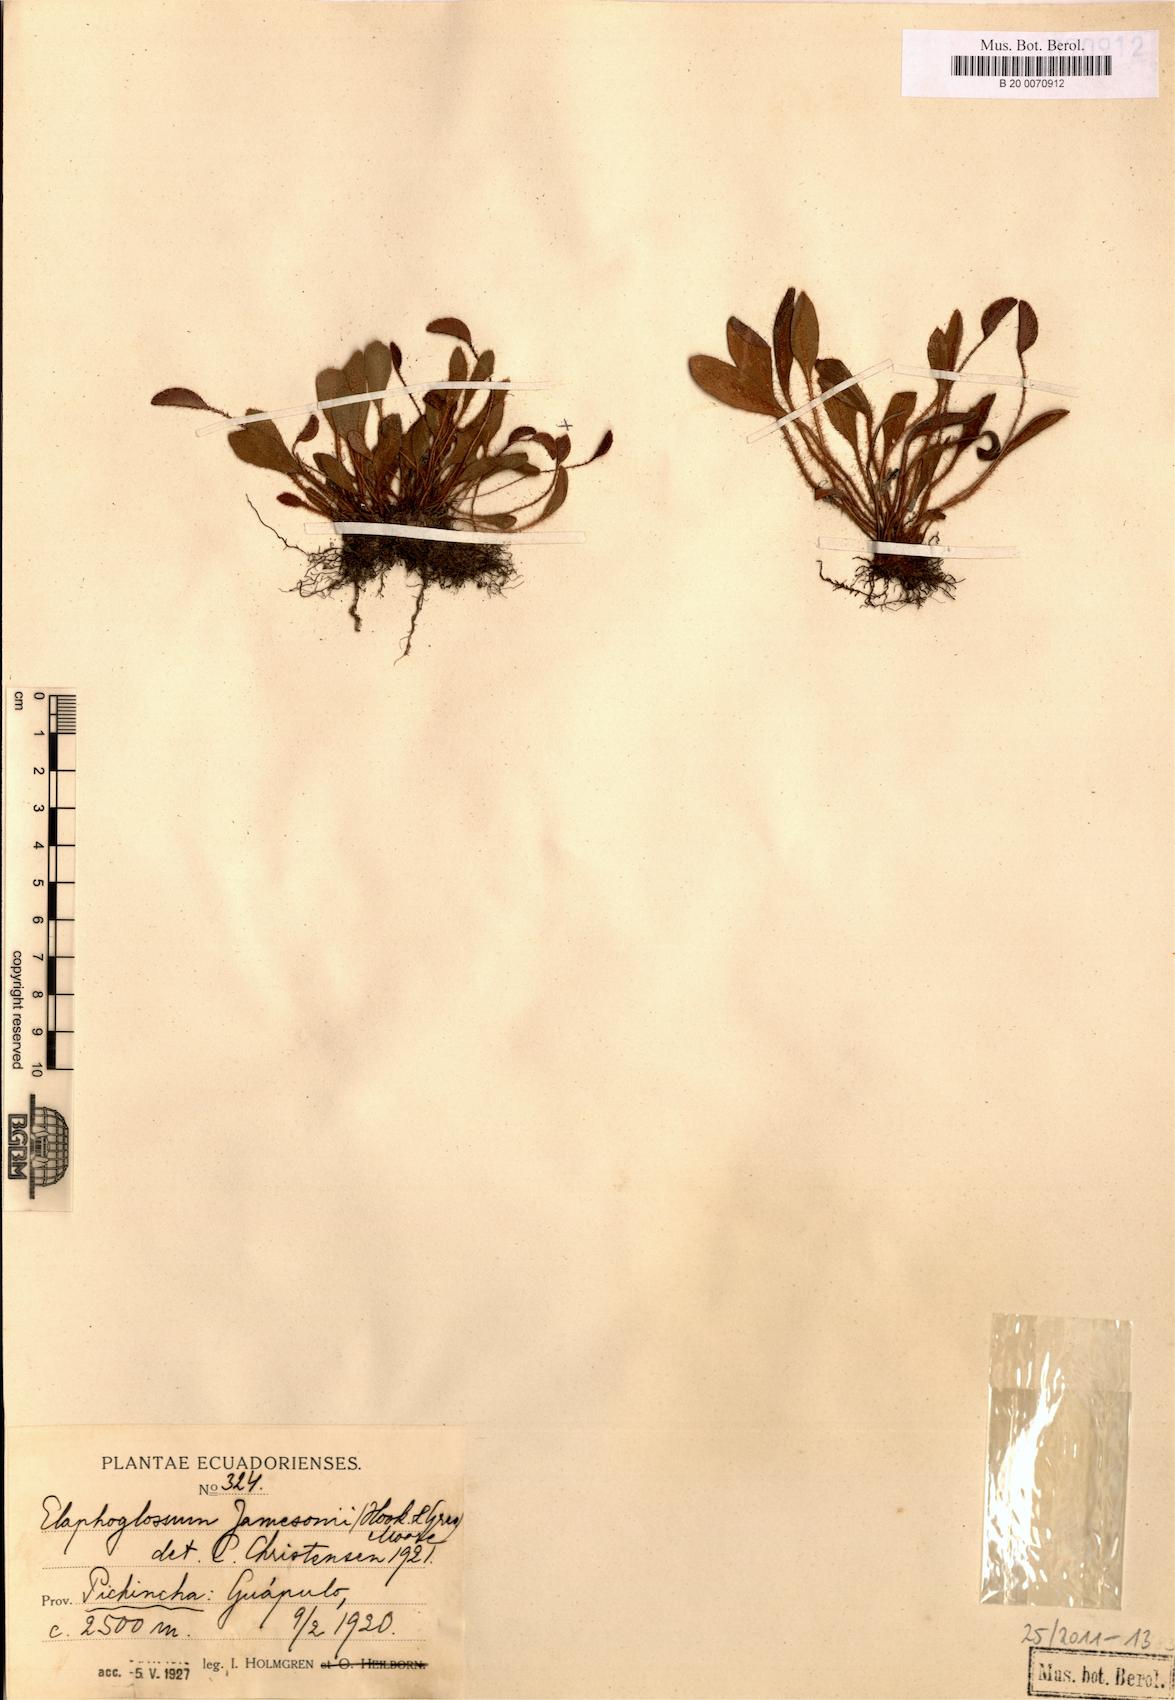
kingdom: Plantae
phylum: Tracheophyta
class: Polypodiopsida
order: Polypodiales
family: Dryopteridaceae
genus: Elaphoglossum
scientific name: Elaphoglossum piloselloides
